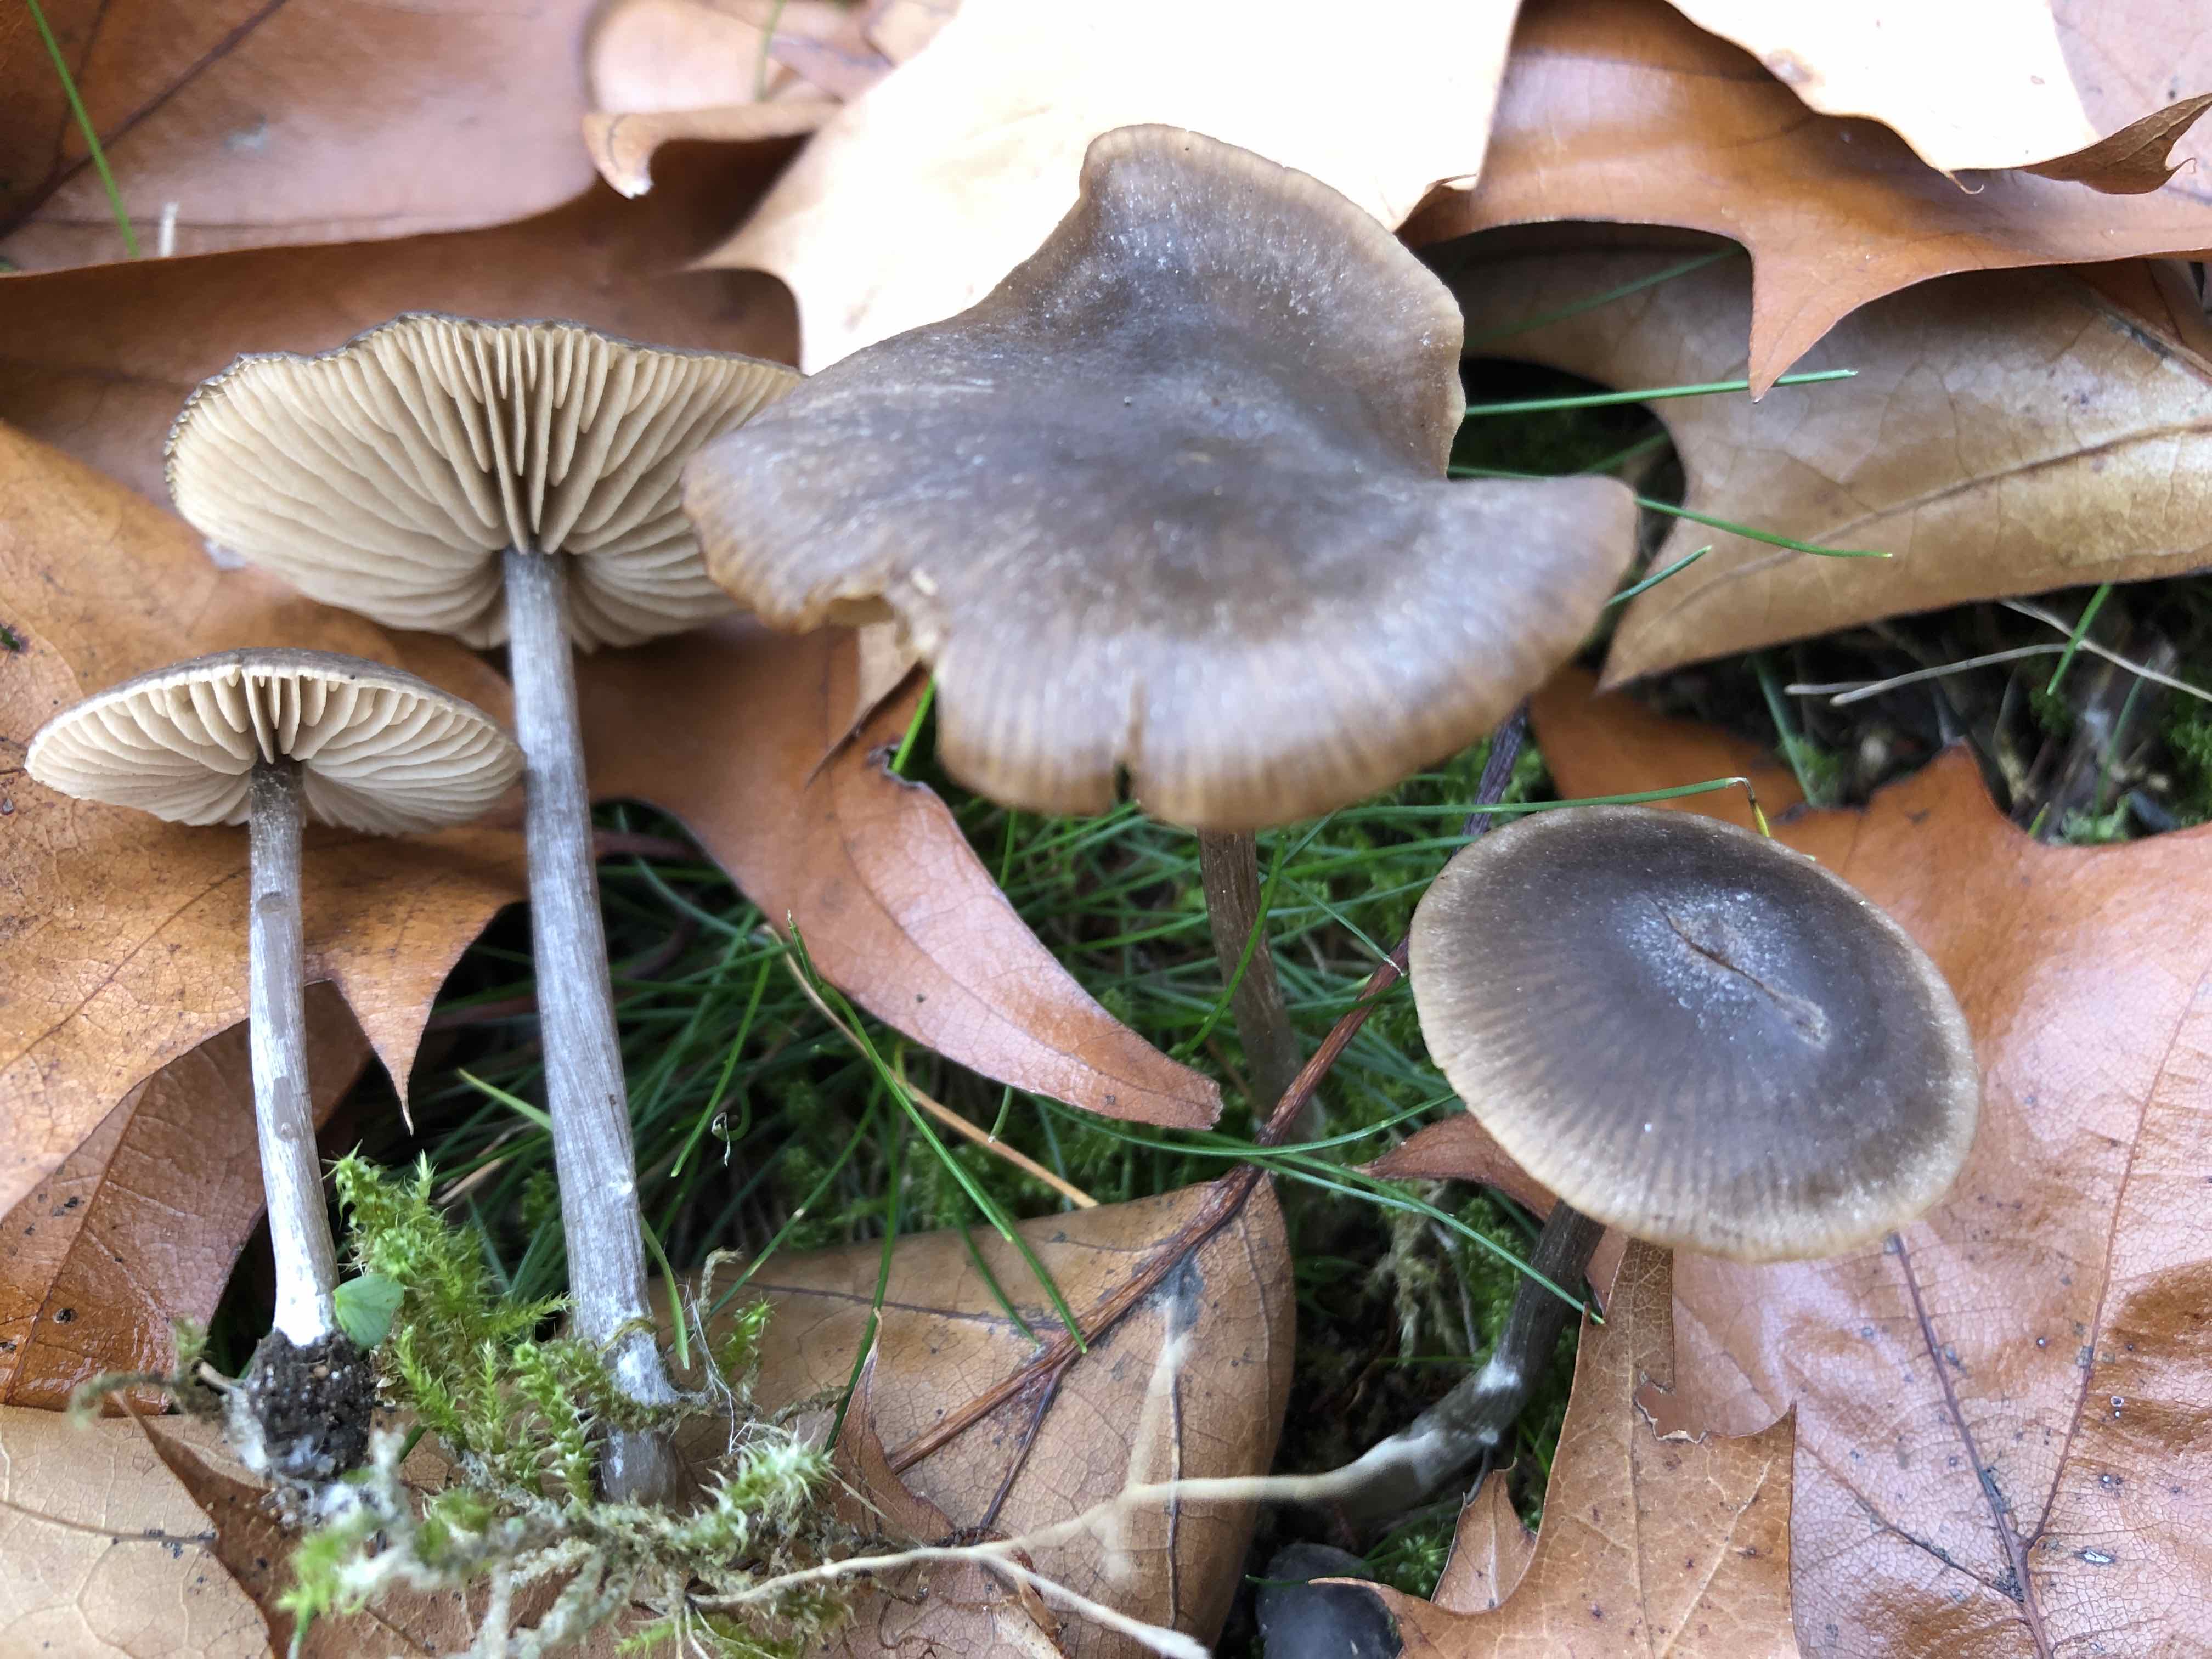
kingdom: Fungi
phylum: Basidiomycota
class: Agaricomycetes
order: Agaricales
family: Entolomataceae
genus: Entoloma
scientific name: Entoloma sericeum
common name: silkeglinsende rødblad
